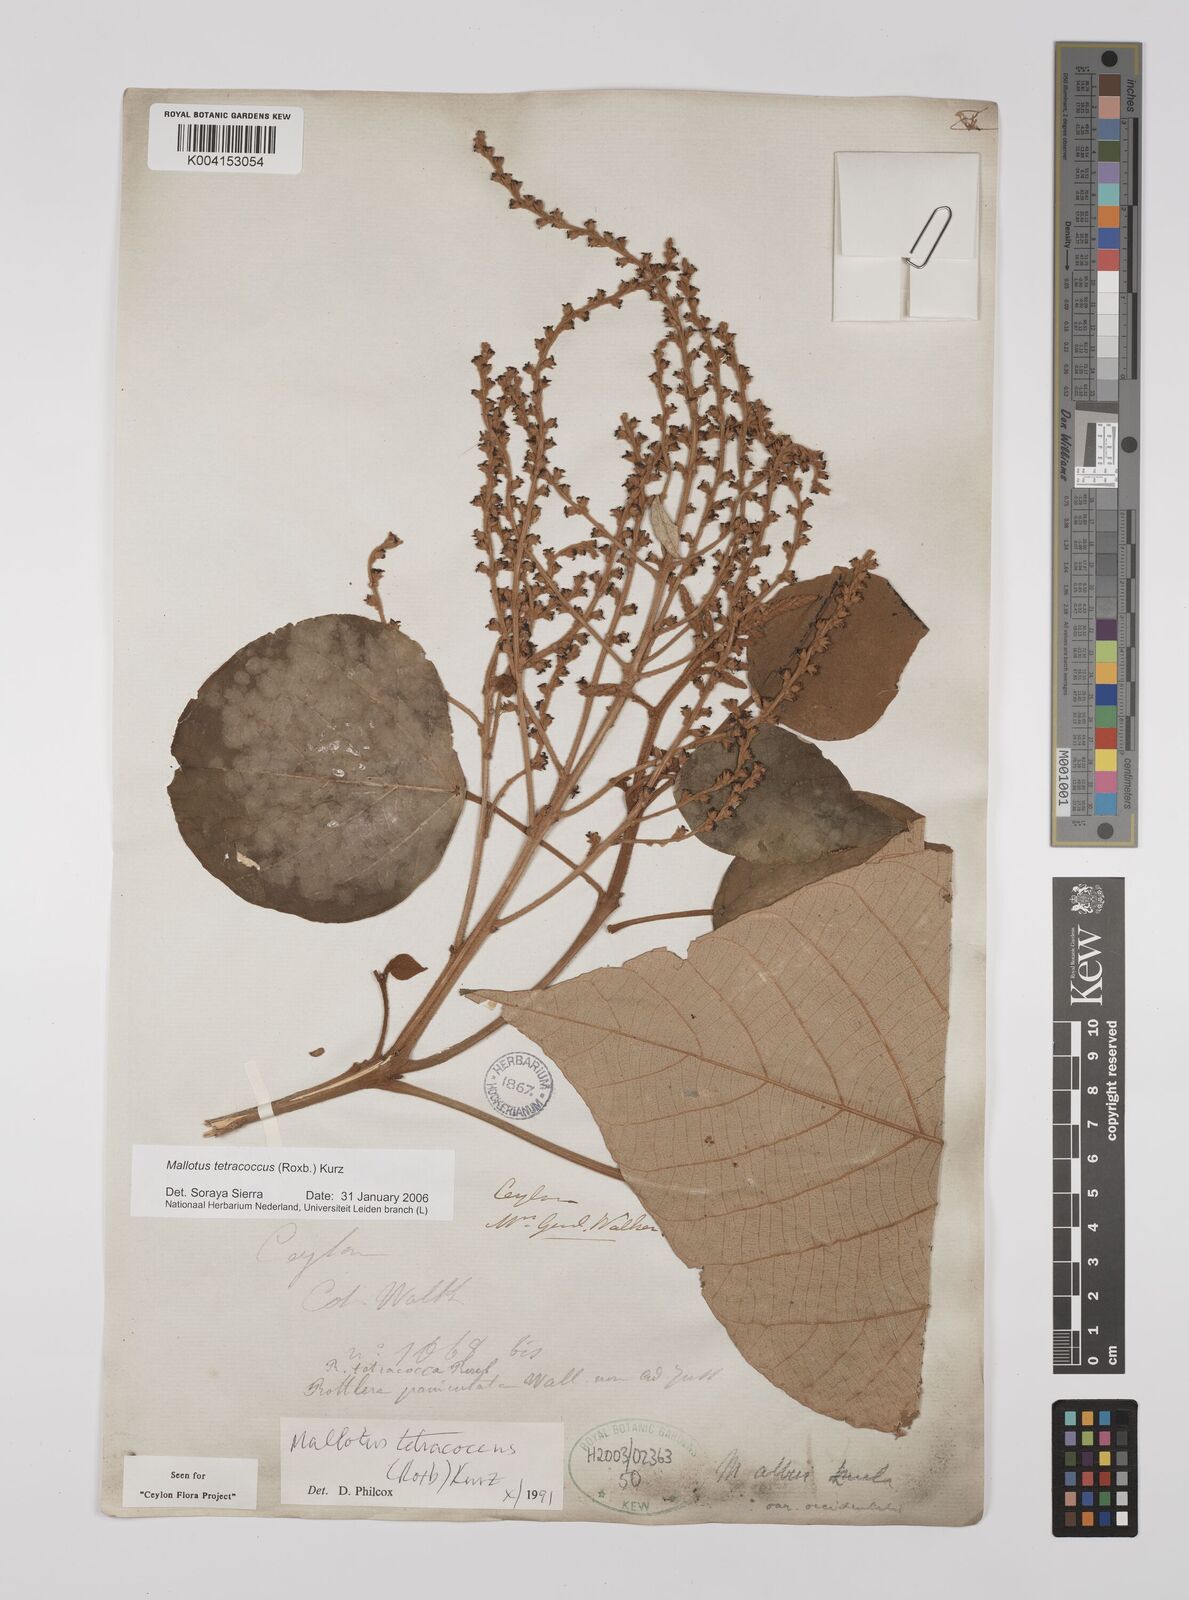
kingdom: Plantae
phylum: Tracheophyta
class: Magnoliopsida
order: Malpighiales
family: Euphorbiaceae
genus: Mallotus
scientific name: Mallotus tetracoccus
